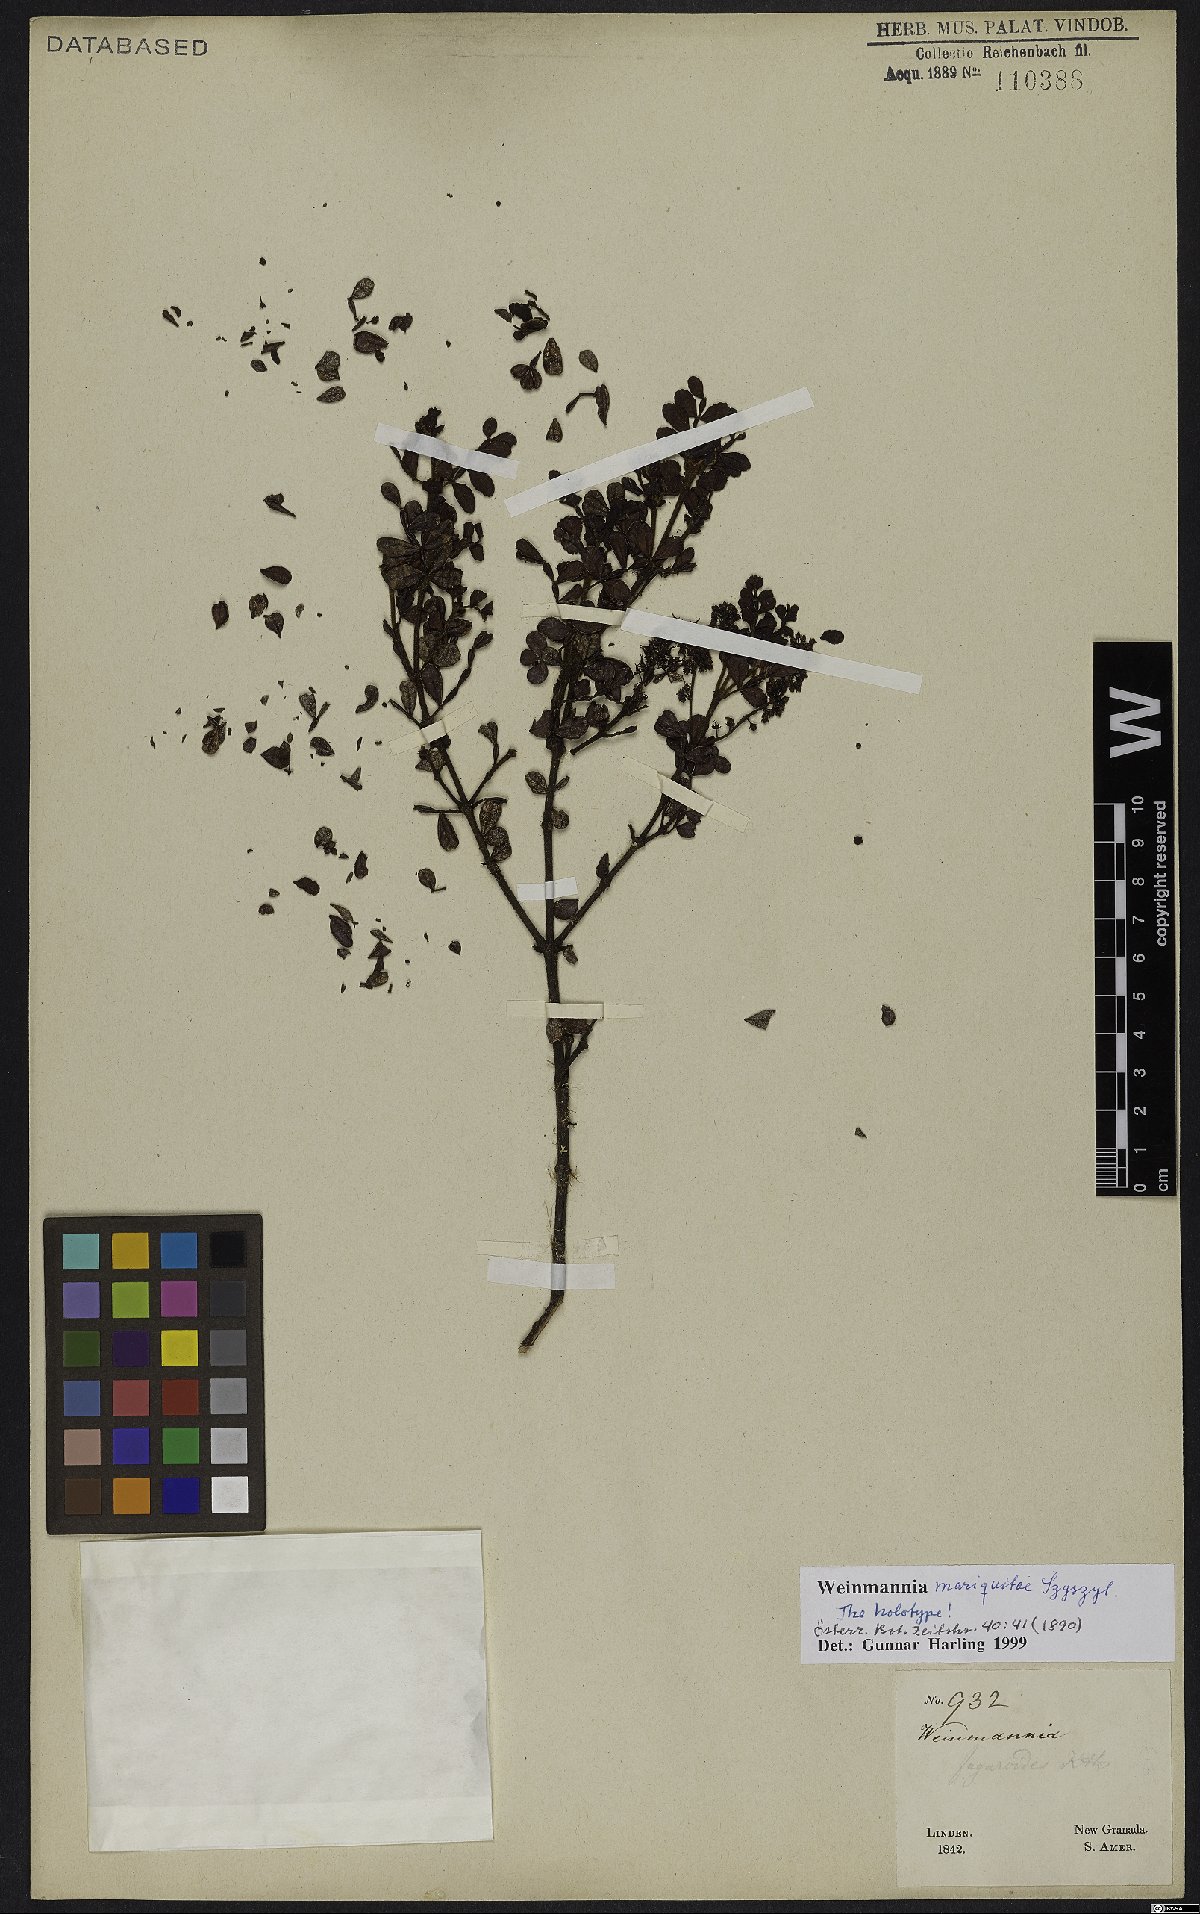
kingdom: Plantae
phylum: Tracheophyta
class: Magnoliopsida
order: Oxalidales
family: Cunoniaceae
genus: Weinmannia
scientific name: Weinmannia mariquitae
